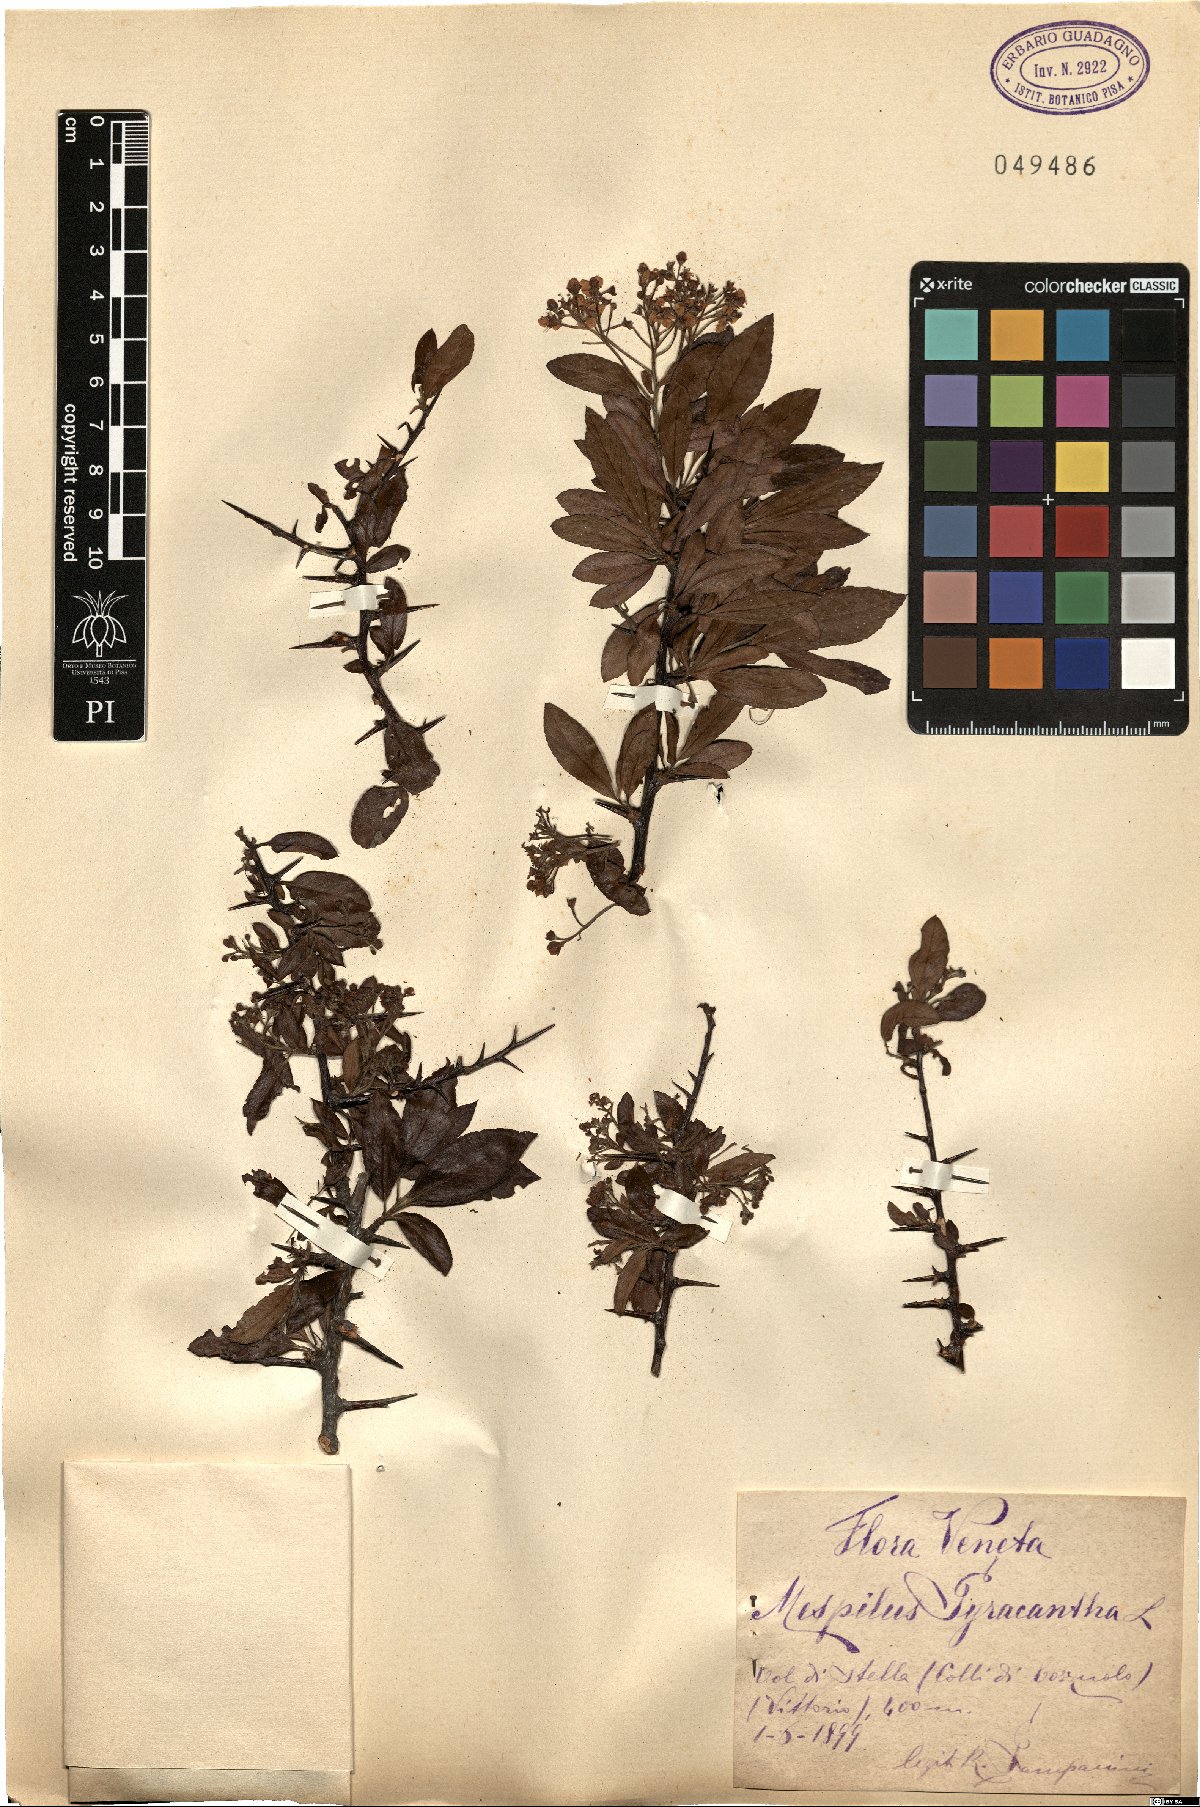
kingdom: Plantae
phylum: Tracheophyta
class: Magnoliopsida
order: Rosales
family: Rosaceae
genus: Pyracantha
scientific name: Pyracantha coccinea
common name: Firethorn
